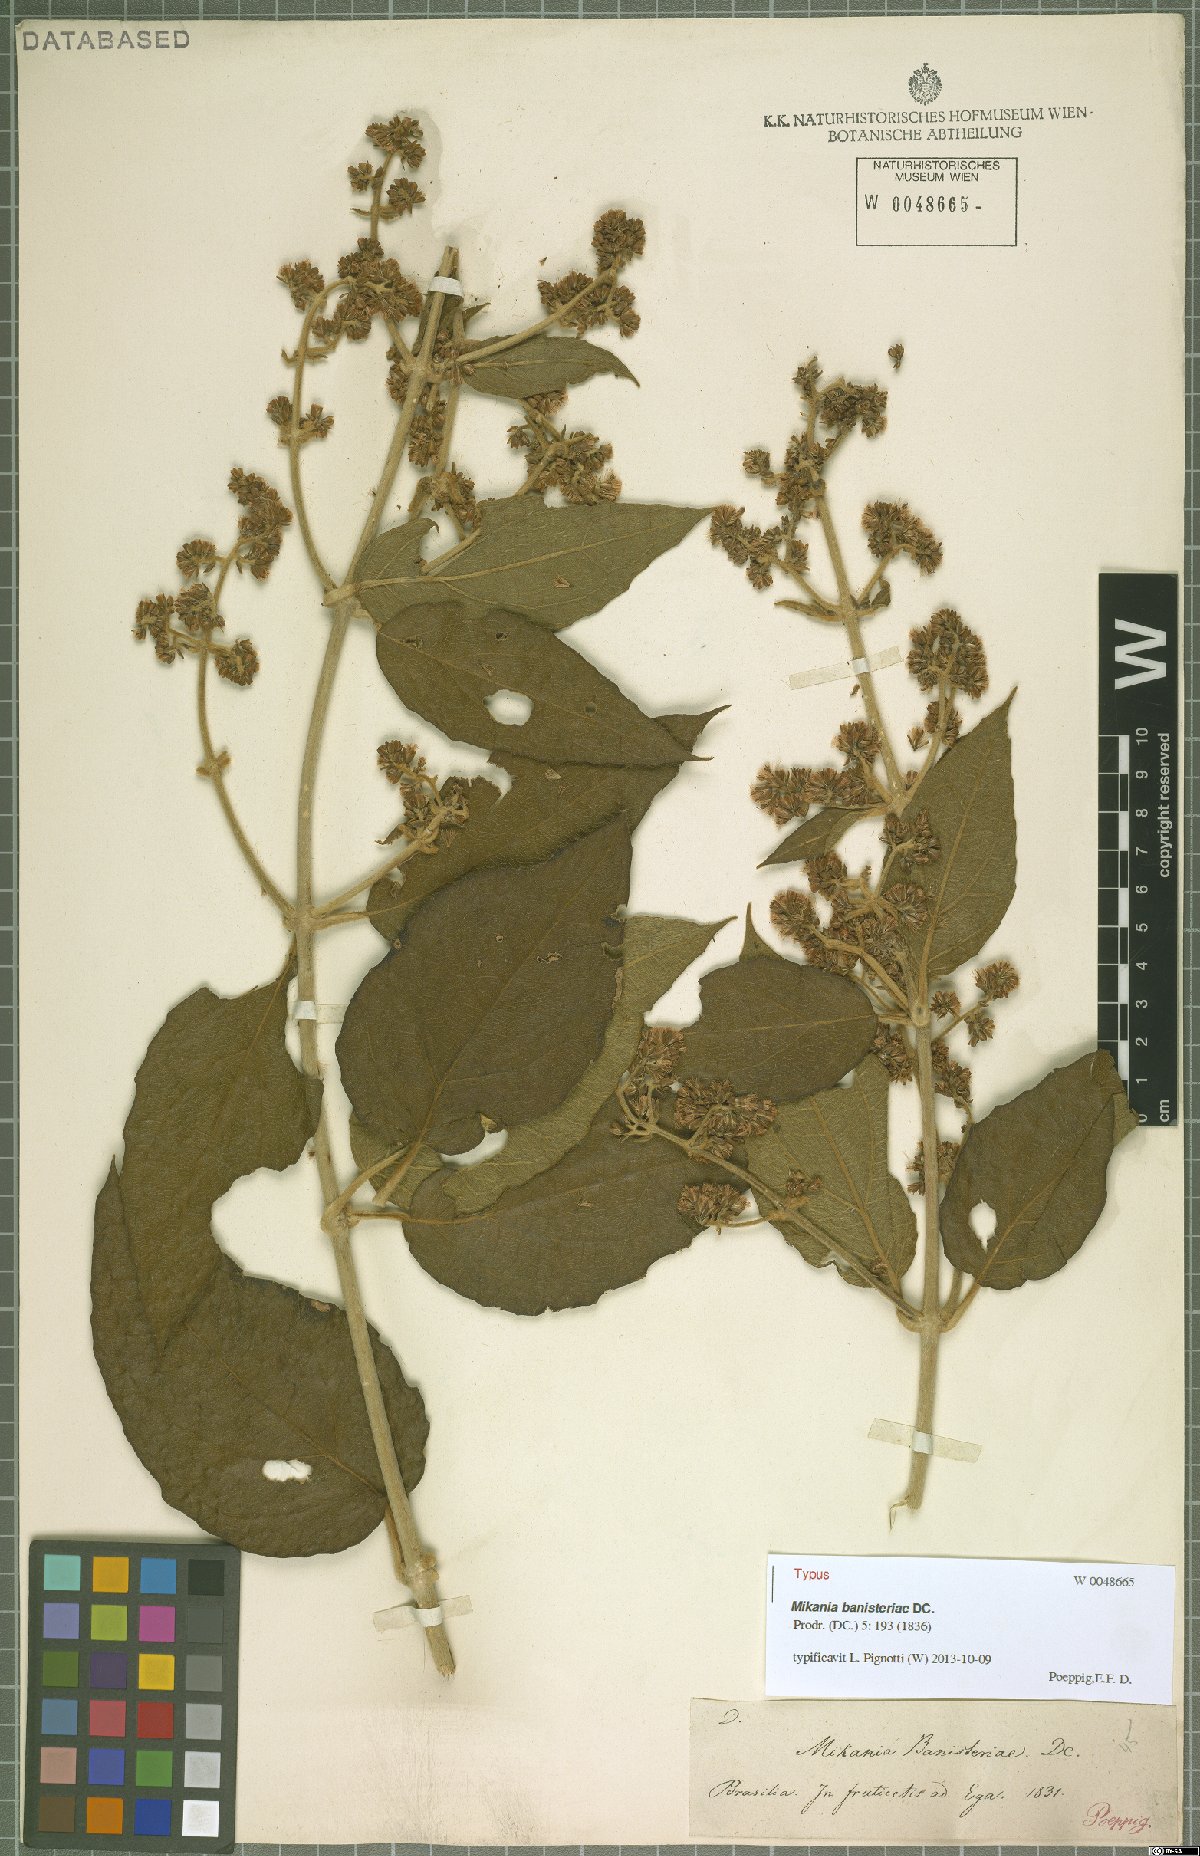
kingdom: Plantae
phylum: Tracheophyta
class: Magnoliopsida
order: Asterales
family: Asteraceae
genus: Mikania
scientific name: Mikania banisteriae
